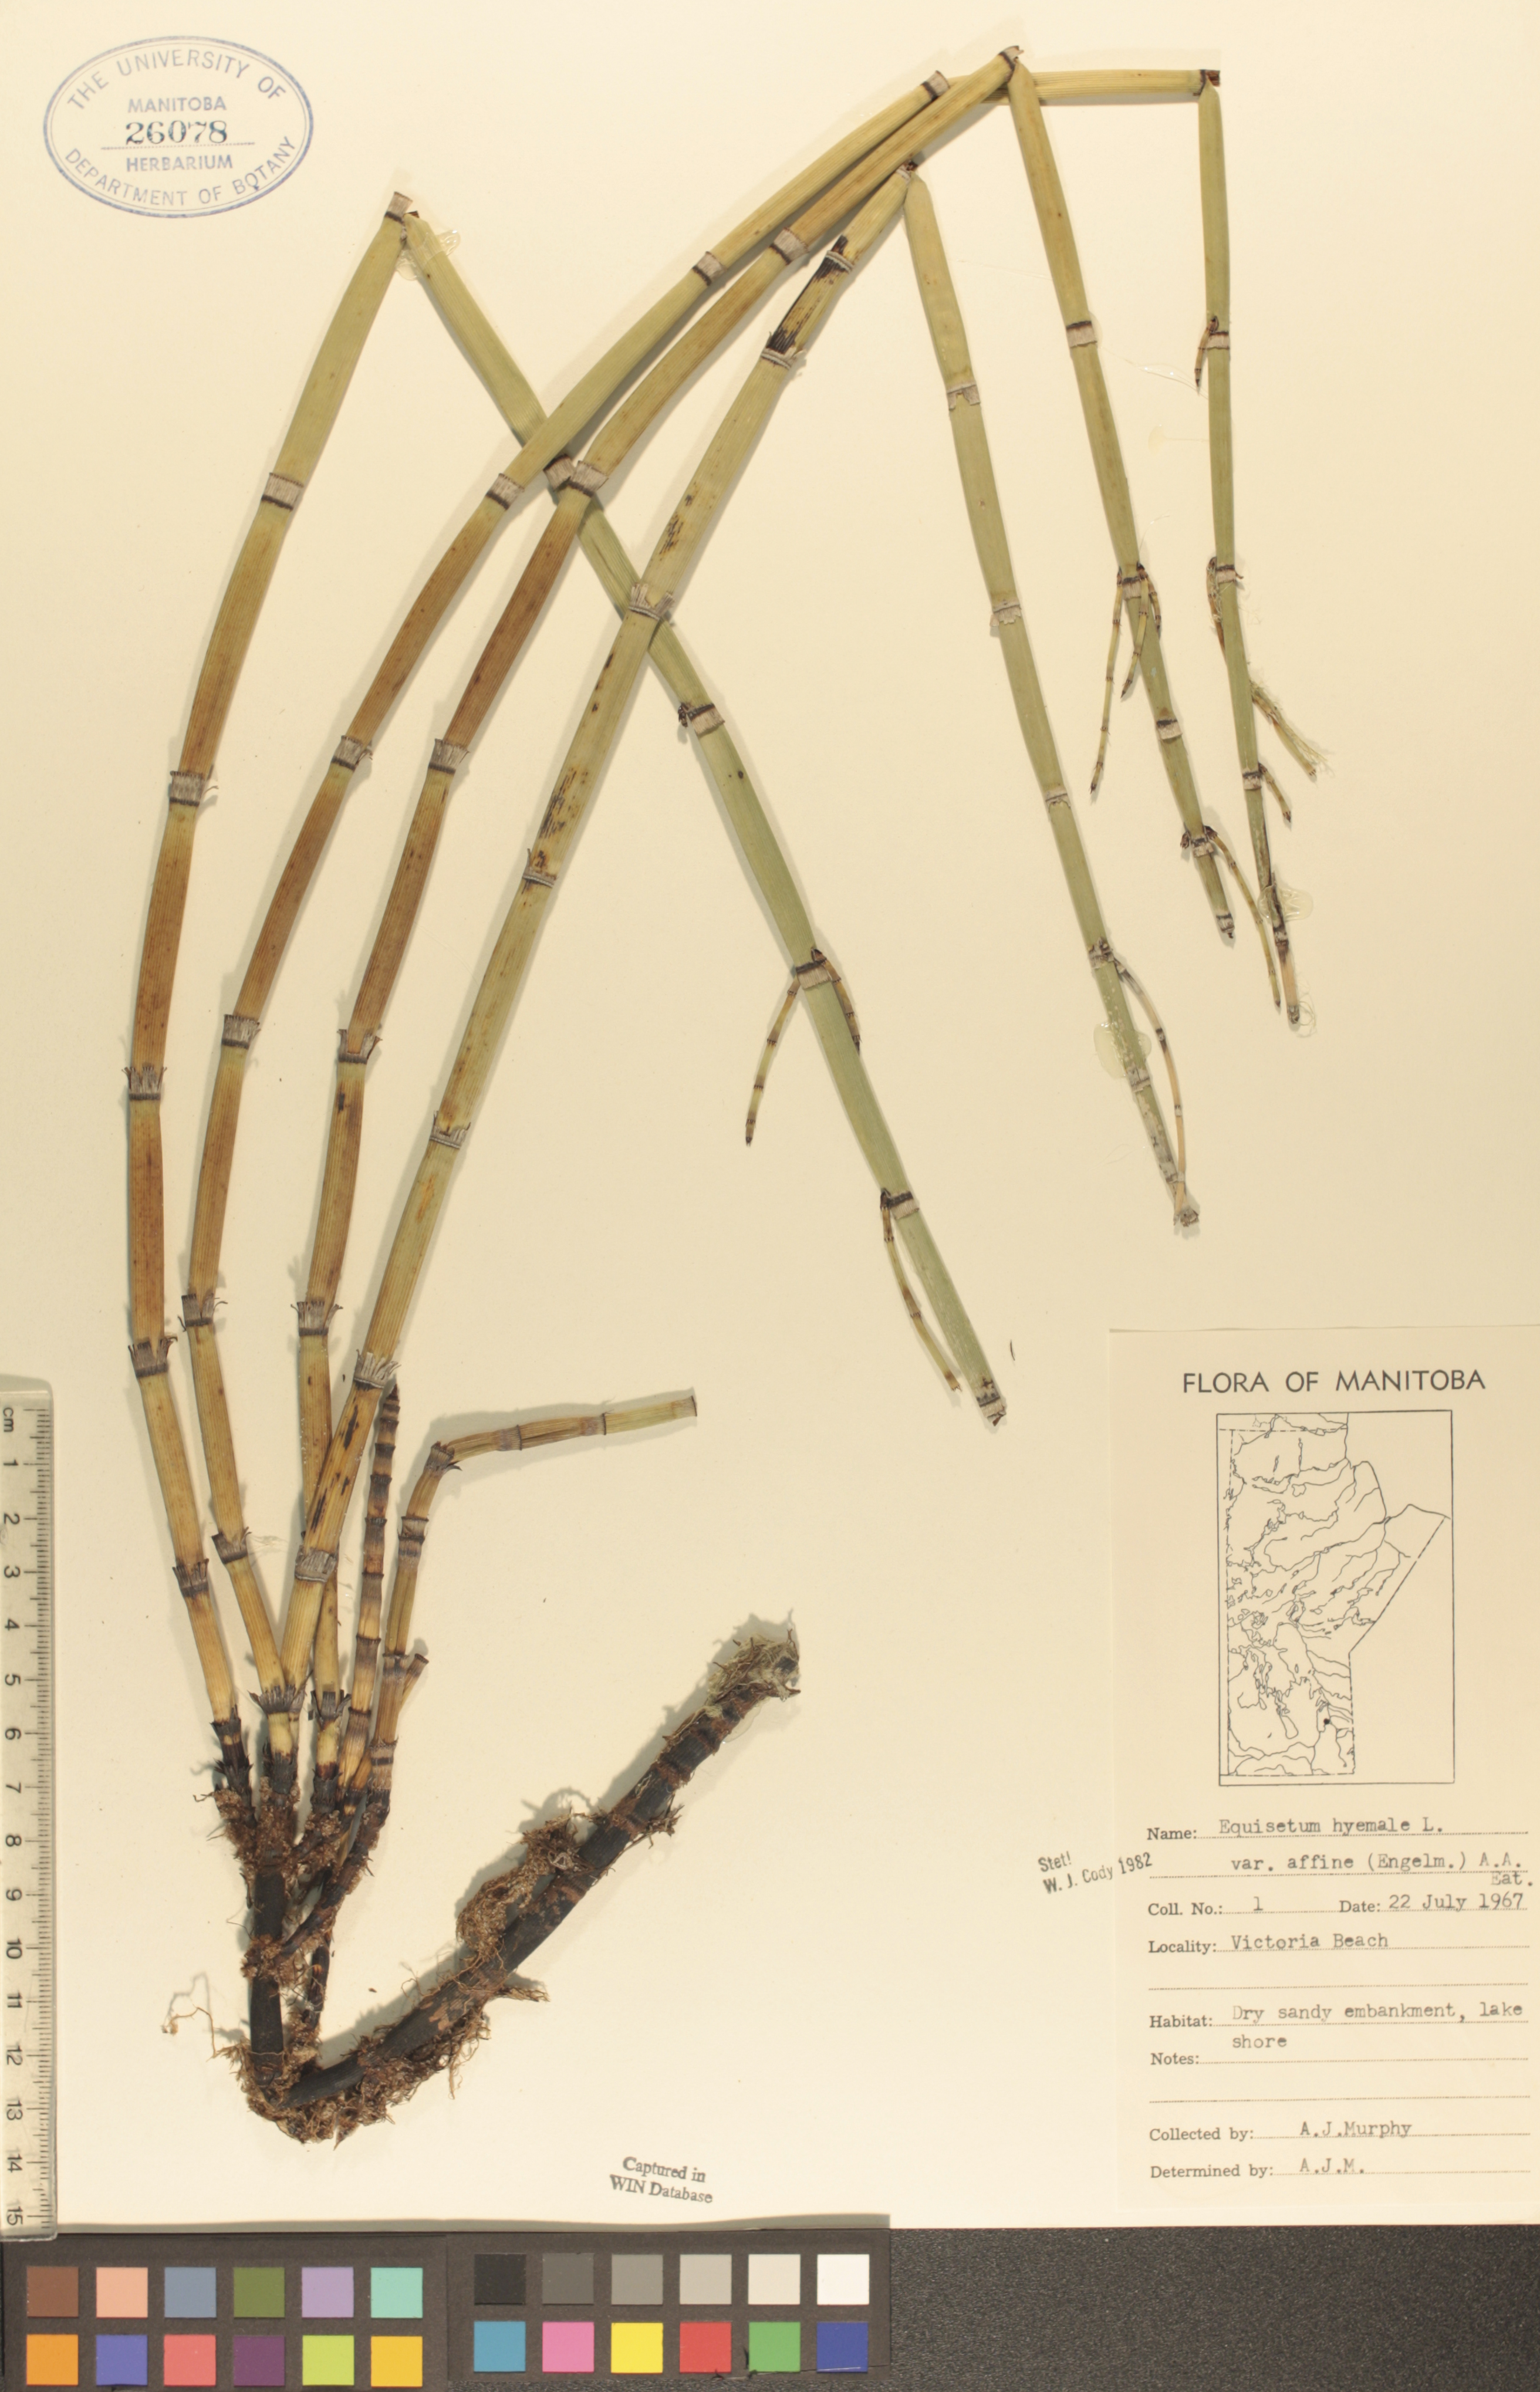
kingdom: Plantae
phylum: Tracheophyta
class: Polypodiopsida
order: Equisetales
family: Equisetaceae
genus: Equisetum
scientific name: Equisetum praealtum
